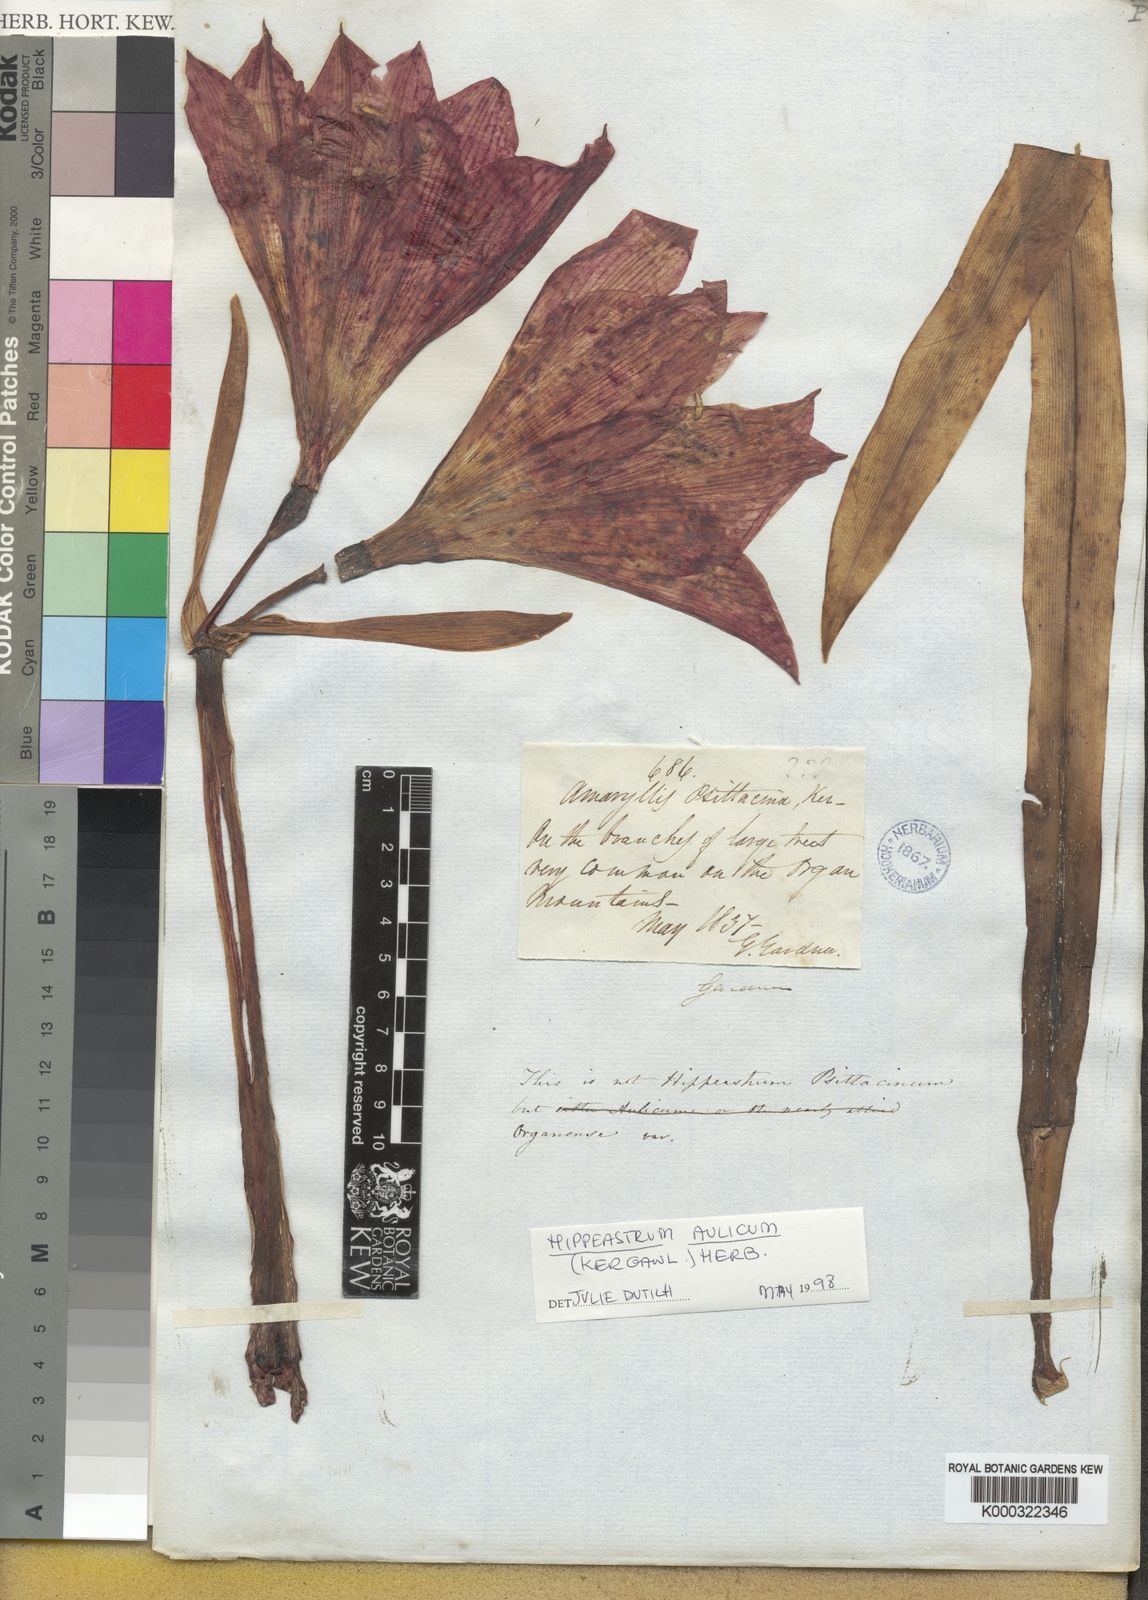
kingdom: Plantae
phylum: Tracheophyta
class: Liliopsida
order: Asparagales
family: Amaryllidaceae
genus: Hippeastrum
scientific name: Hippeastrum aulicum
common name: Lily-of-the-palace
